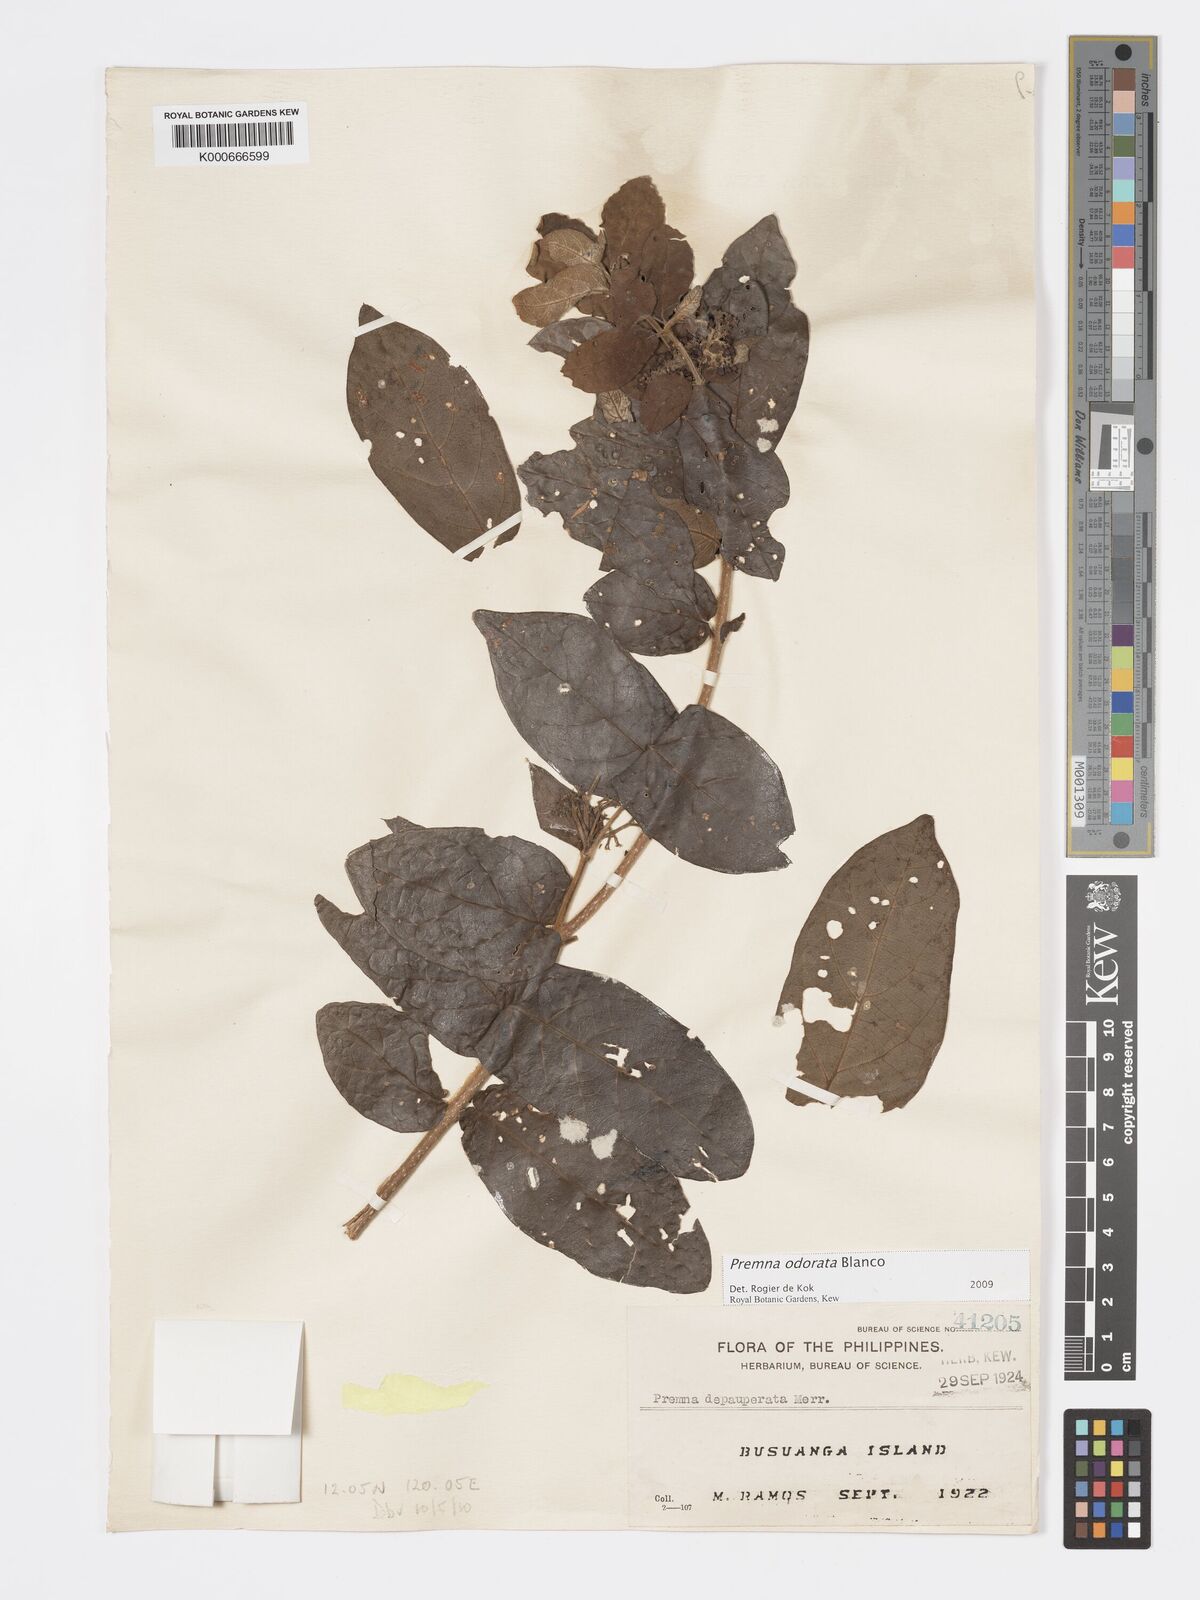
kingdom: Plantae
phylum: Tracheophyta
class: Magnoliopsida
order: Lamiales
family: Lamiaceae
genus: Premna
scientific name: Premna odorata
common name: Fragrant premna
